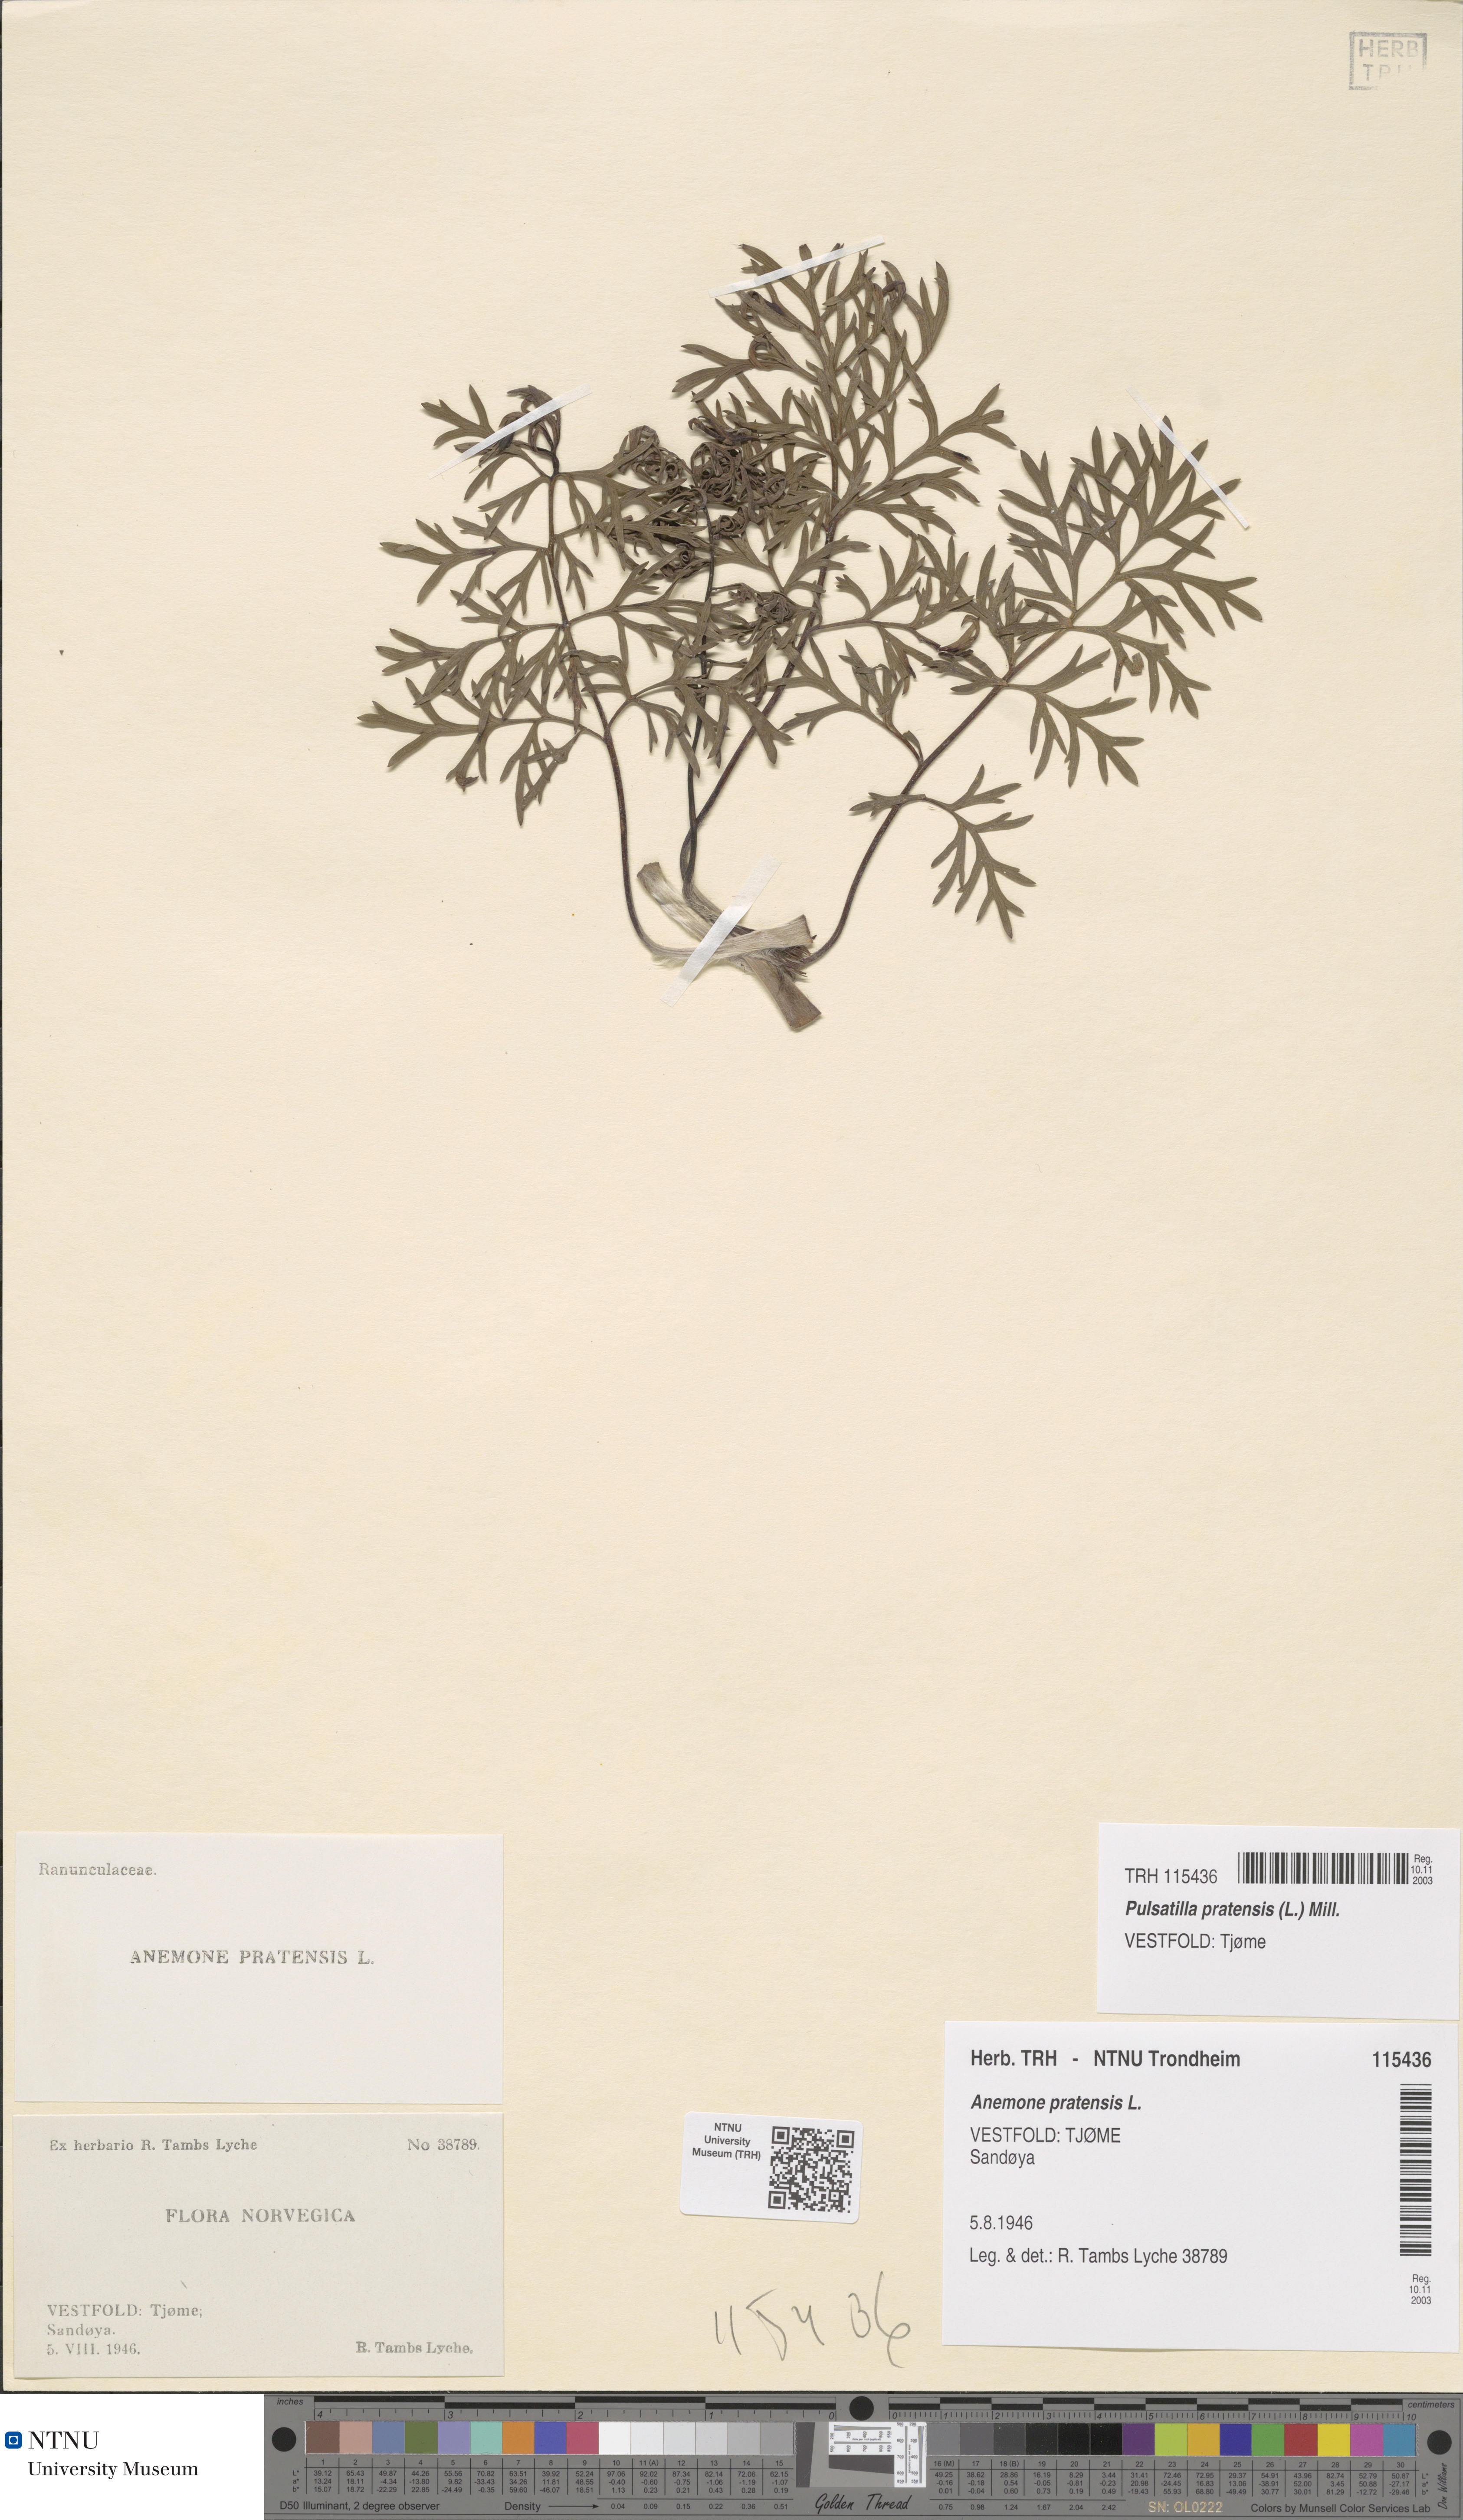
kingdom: Plantae
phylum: Tracheophyta
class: Magnoliopsida
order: Ranunculales
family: Ranunculaceae
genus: Pulsatilla
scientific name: Pulsatilla pratensis
